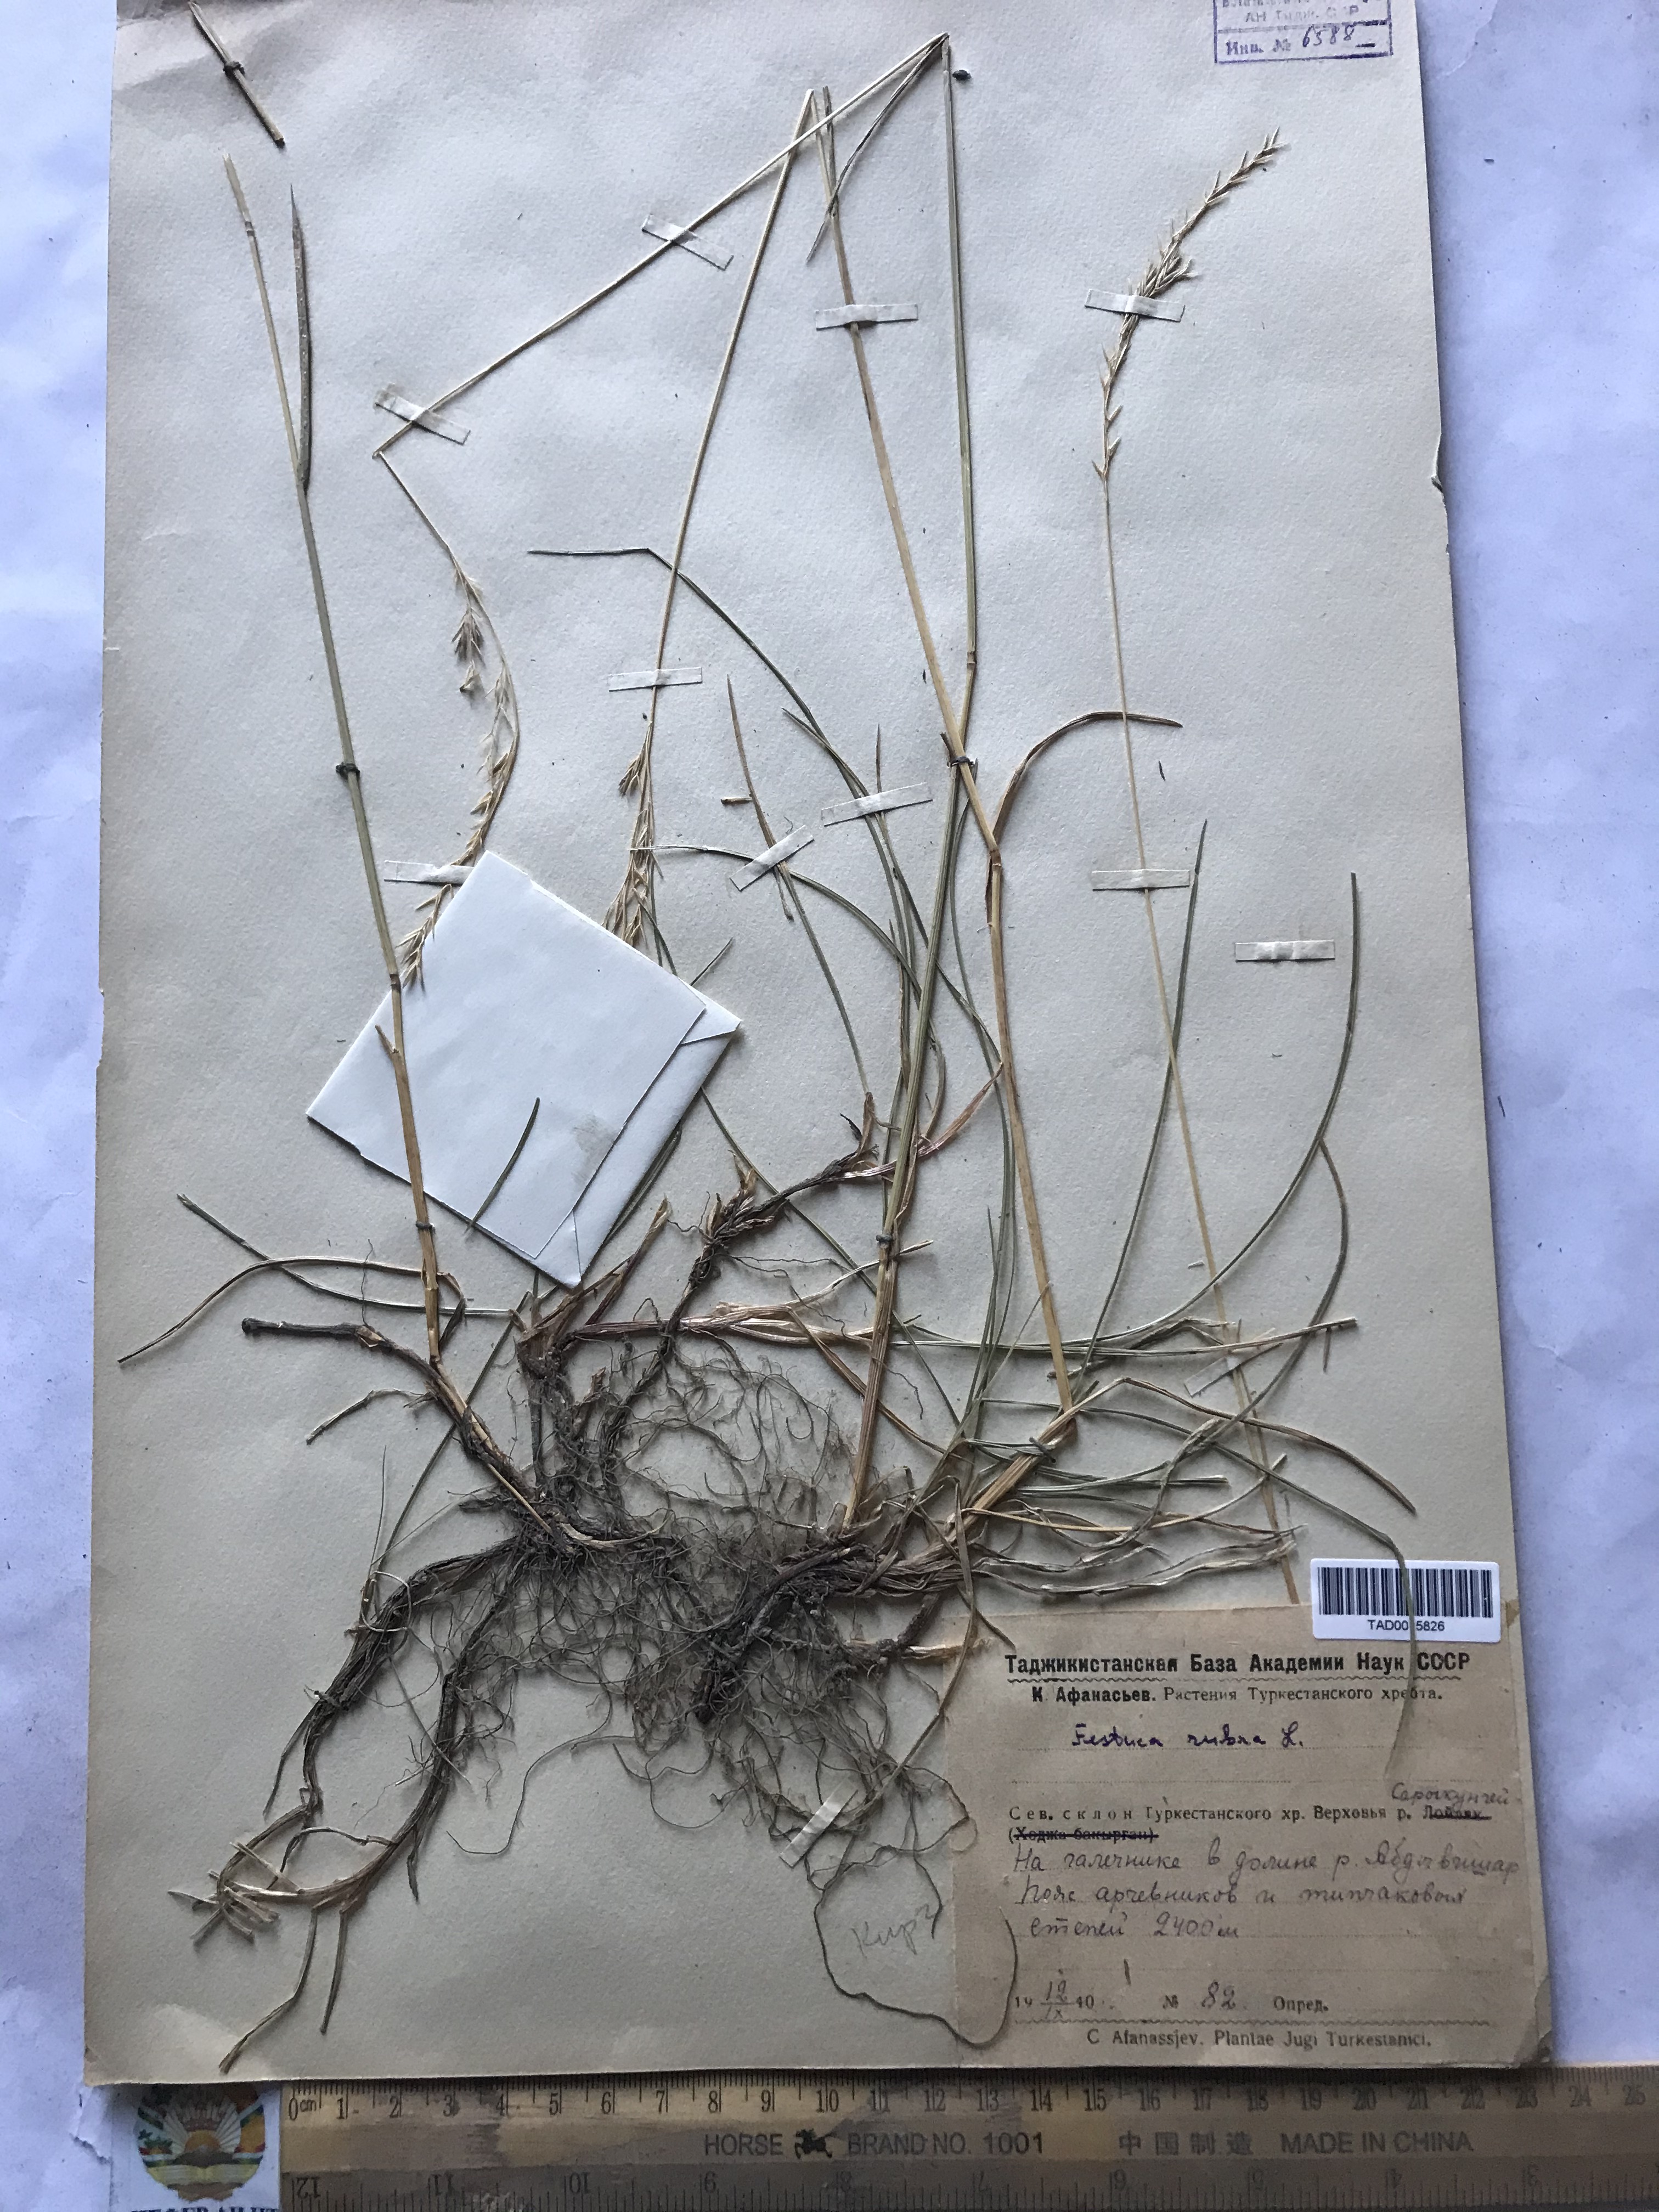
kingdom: Plantae
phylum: Tracheophyta
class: Liliopsida
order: Poales
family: Poaceae
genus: Festuca
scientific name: Festuca rubra
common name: Red fescue
